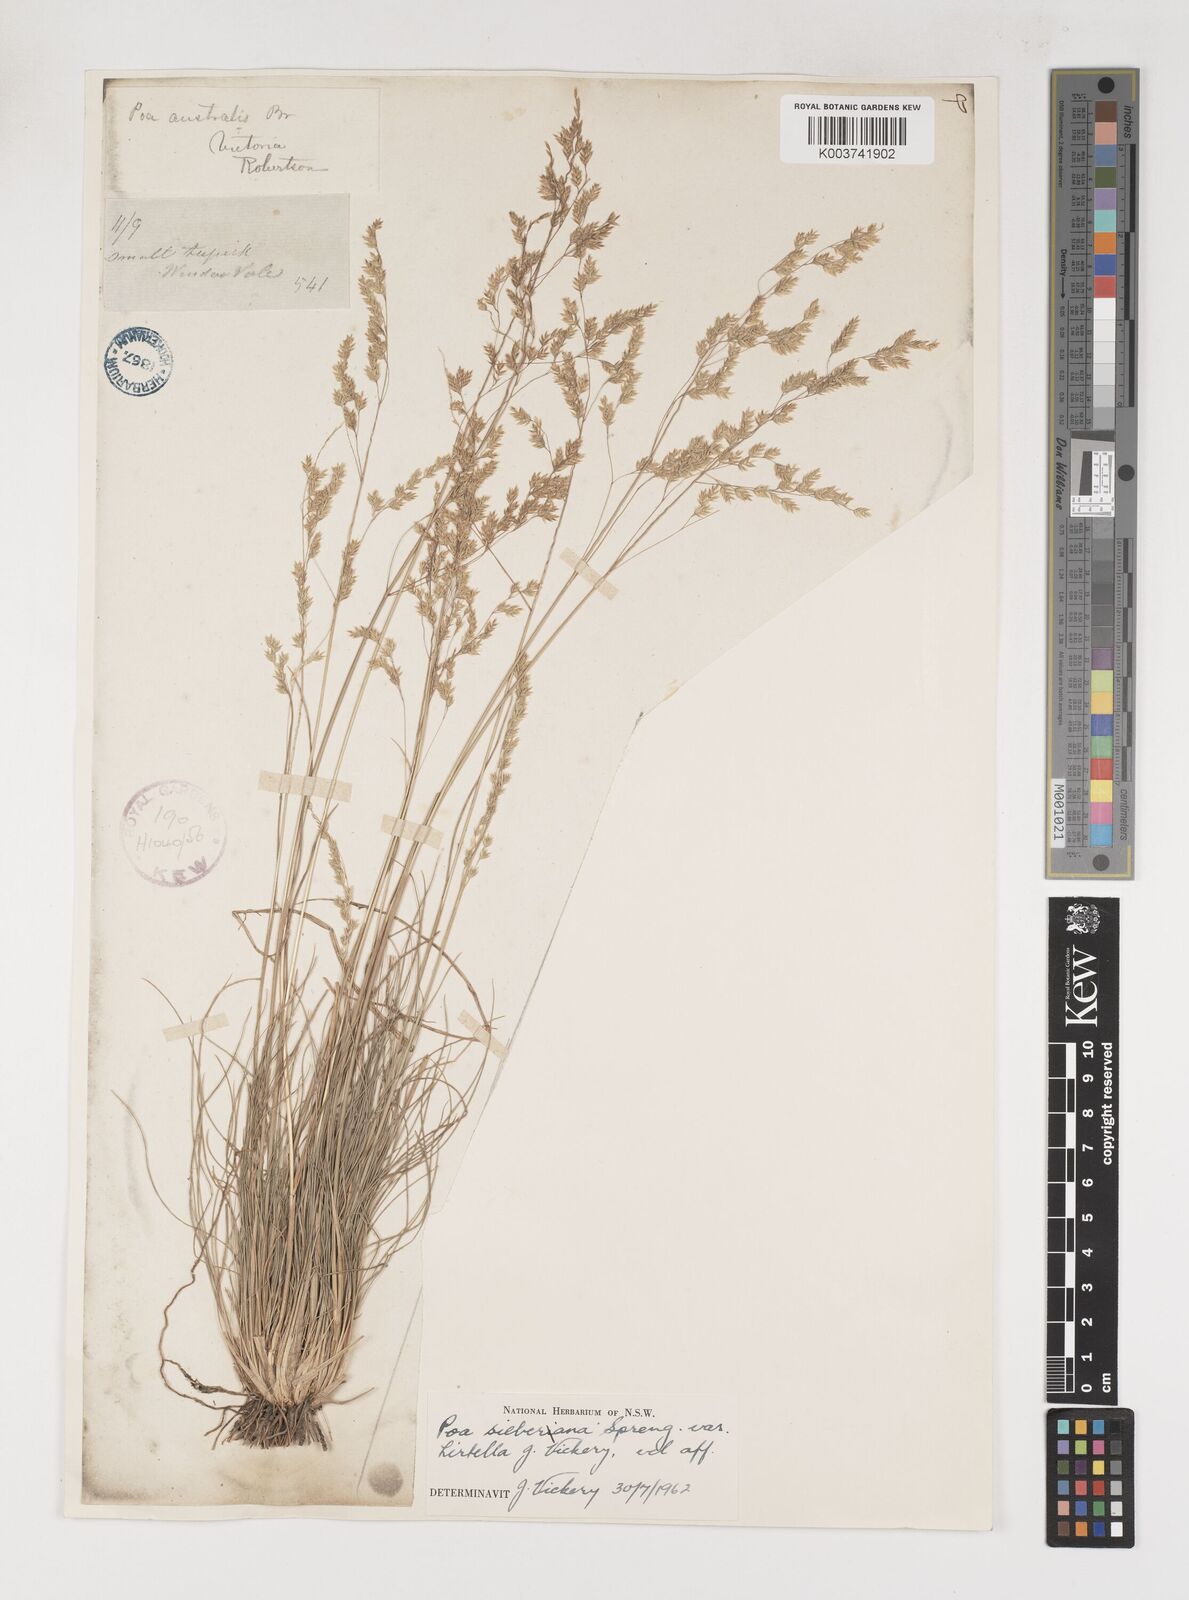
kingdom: Plantae
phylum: Tracheophyta
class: Liliopsida
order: Poales
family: Poaceae
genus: Poa
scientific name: Poa sieberiana
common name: Tussock poa
